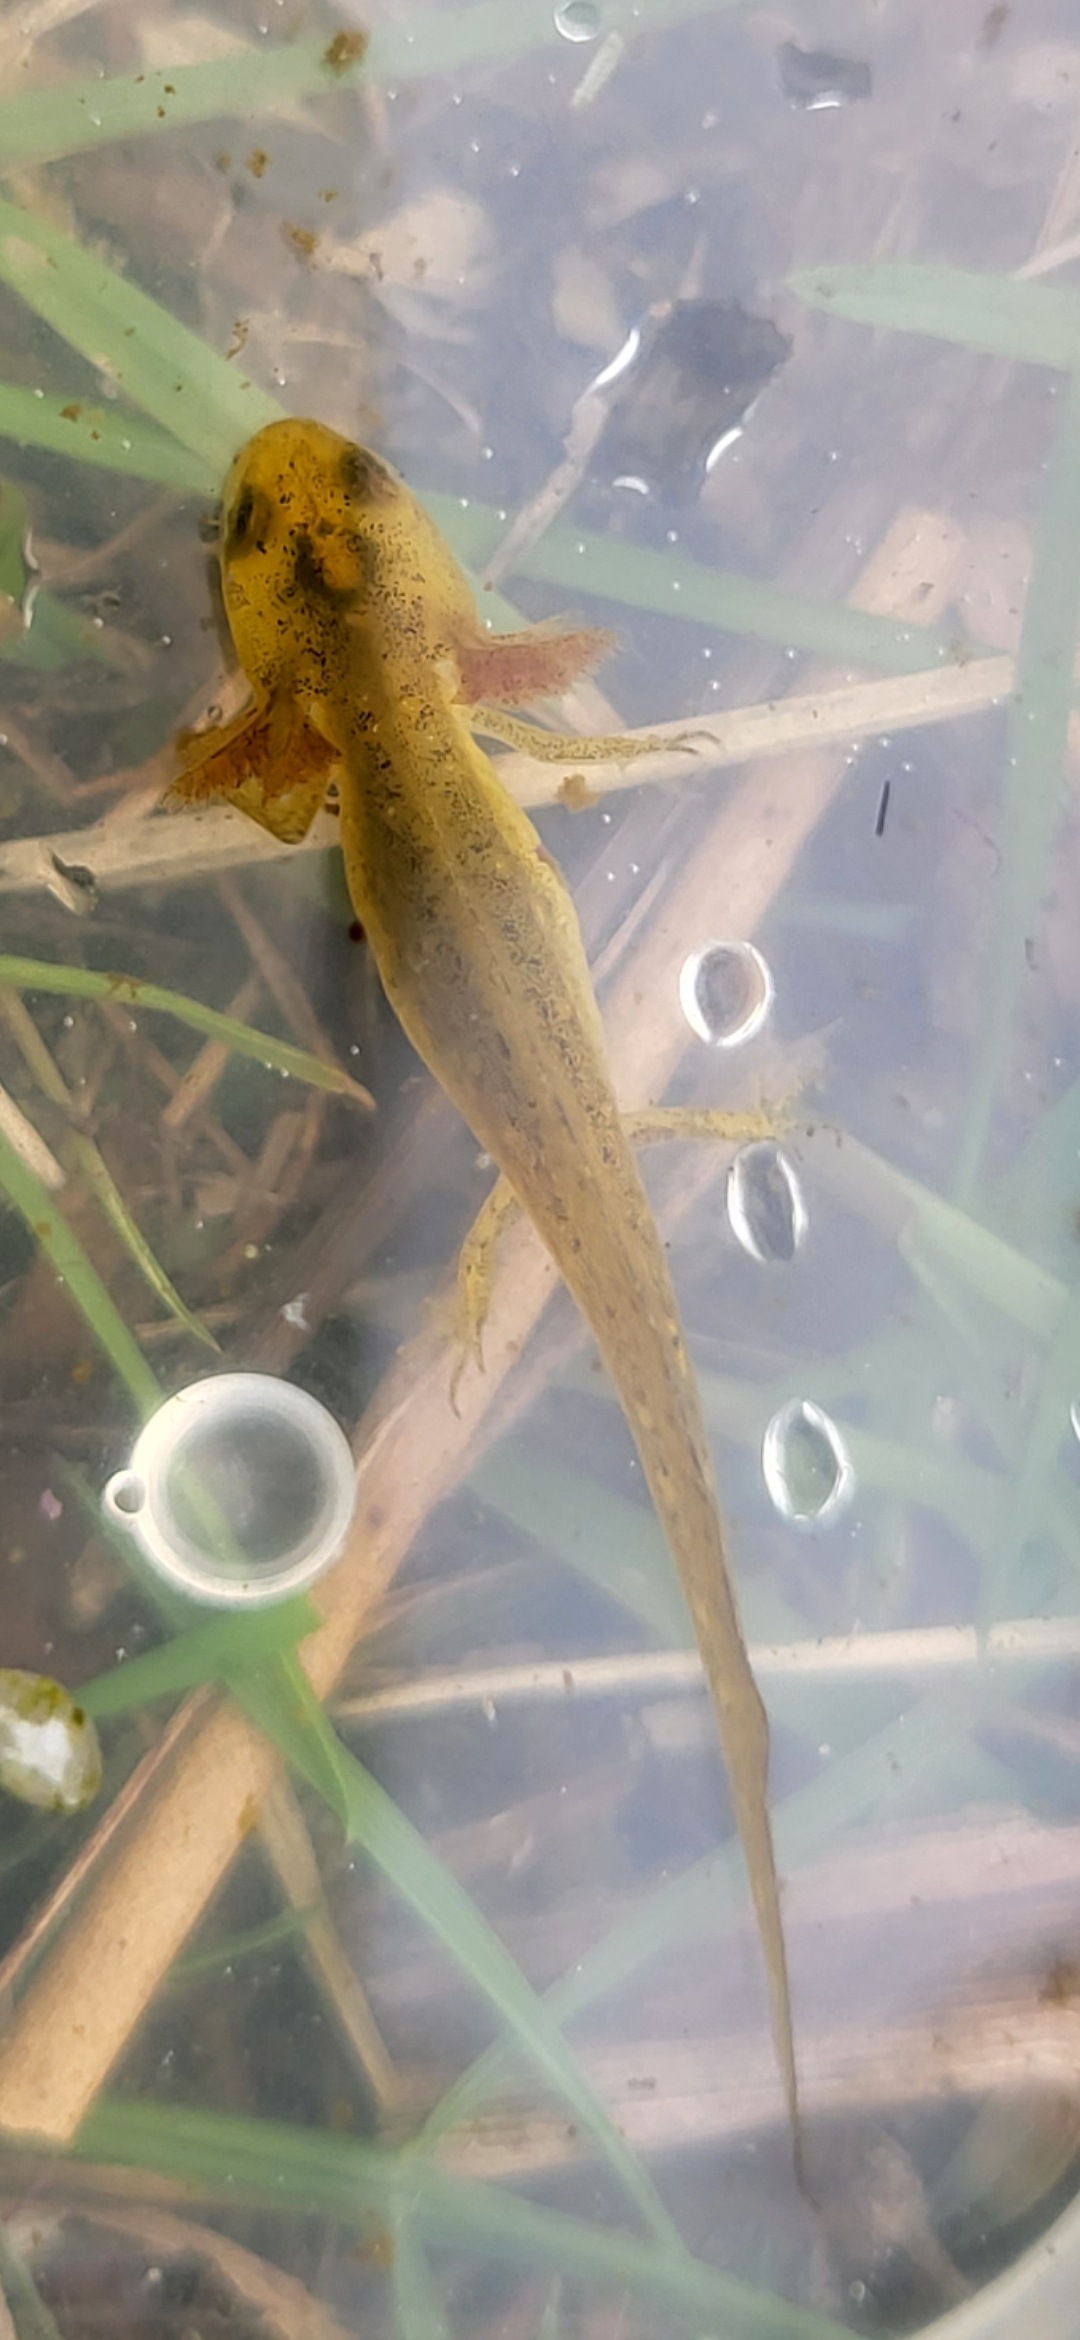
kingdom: Animalia
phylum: Chordata
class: Amphibia
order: Caudata
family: Salamandridae
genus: Lissotriton
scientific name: Lissotriton vulgaris
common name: Lille vandsalamander
